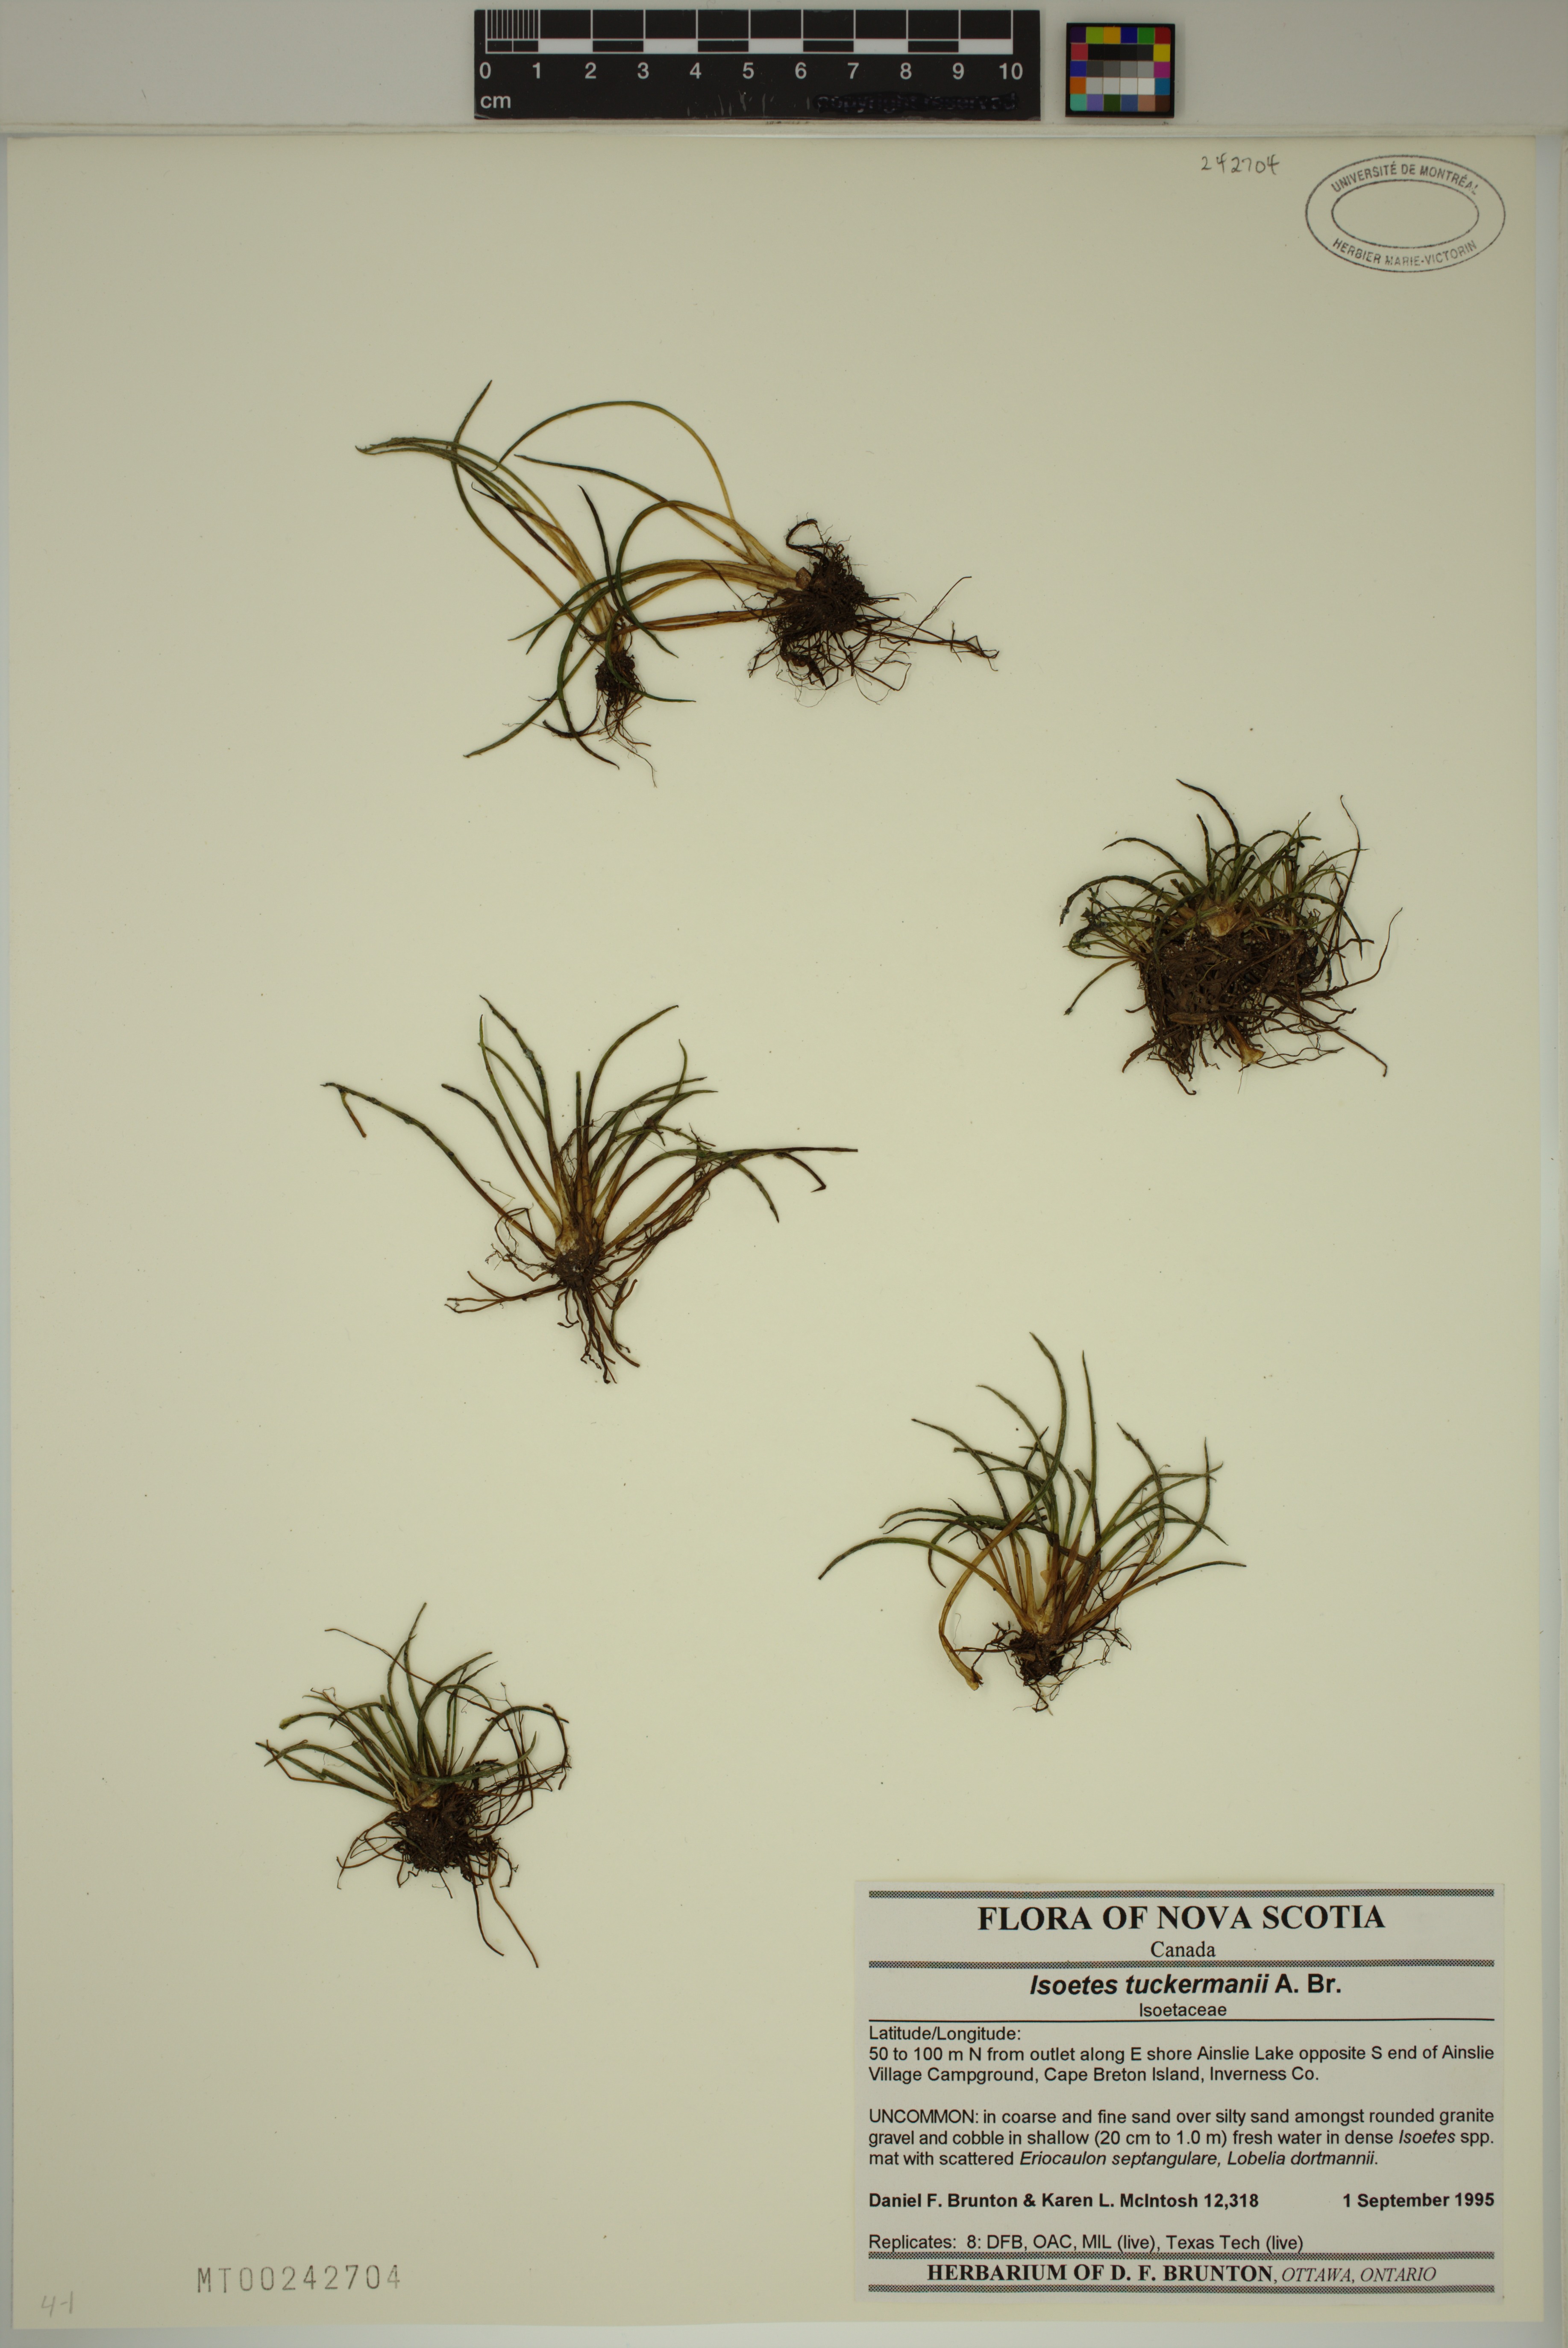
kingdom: Plantae
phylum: Tracheophyta
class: Lycopodiopsida
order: Isoetales
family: Isoetaceae
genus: Isoetes
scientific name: Isoetes lacustris
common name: Common quillwort
